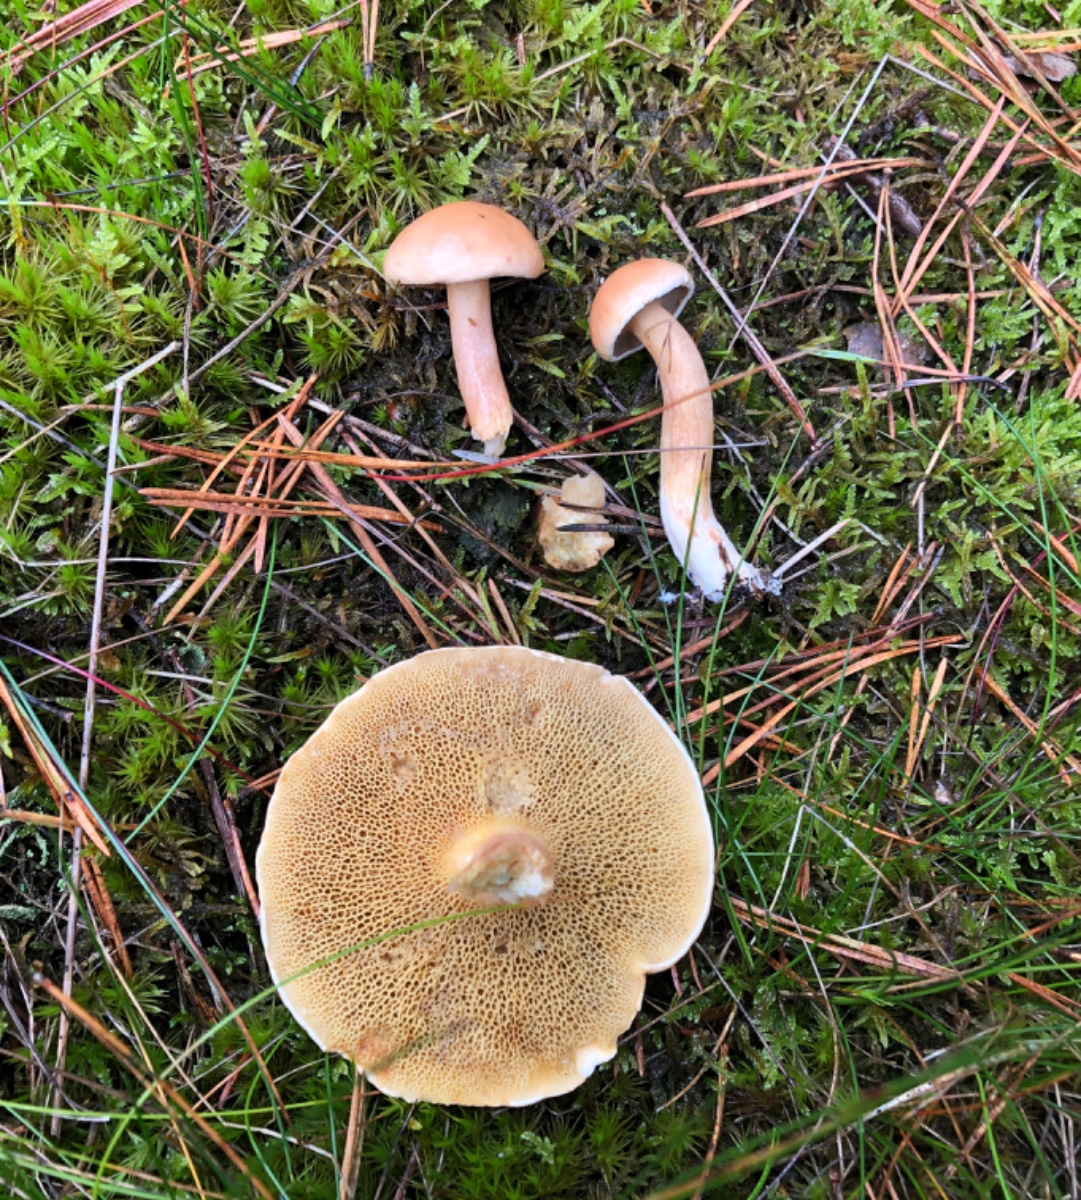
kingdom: Fungi
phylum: Basidiomycota
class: Agaricomycetes
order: Boletales
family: Suillaceae
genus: Suillus
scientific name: Suillus bovinus
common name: grovporet slimrørhat
